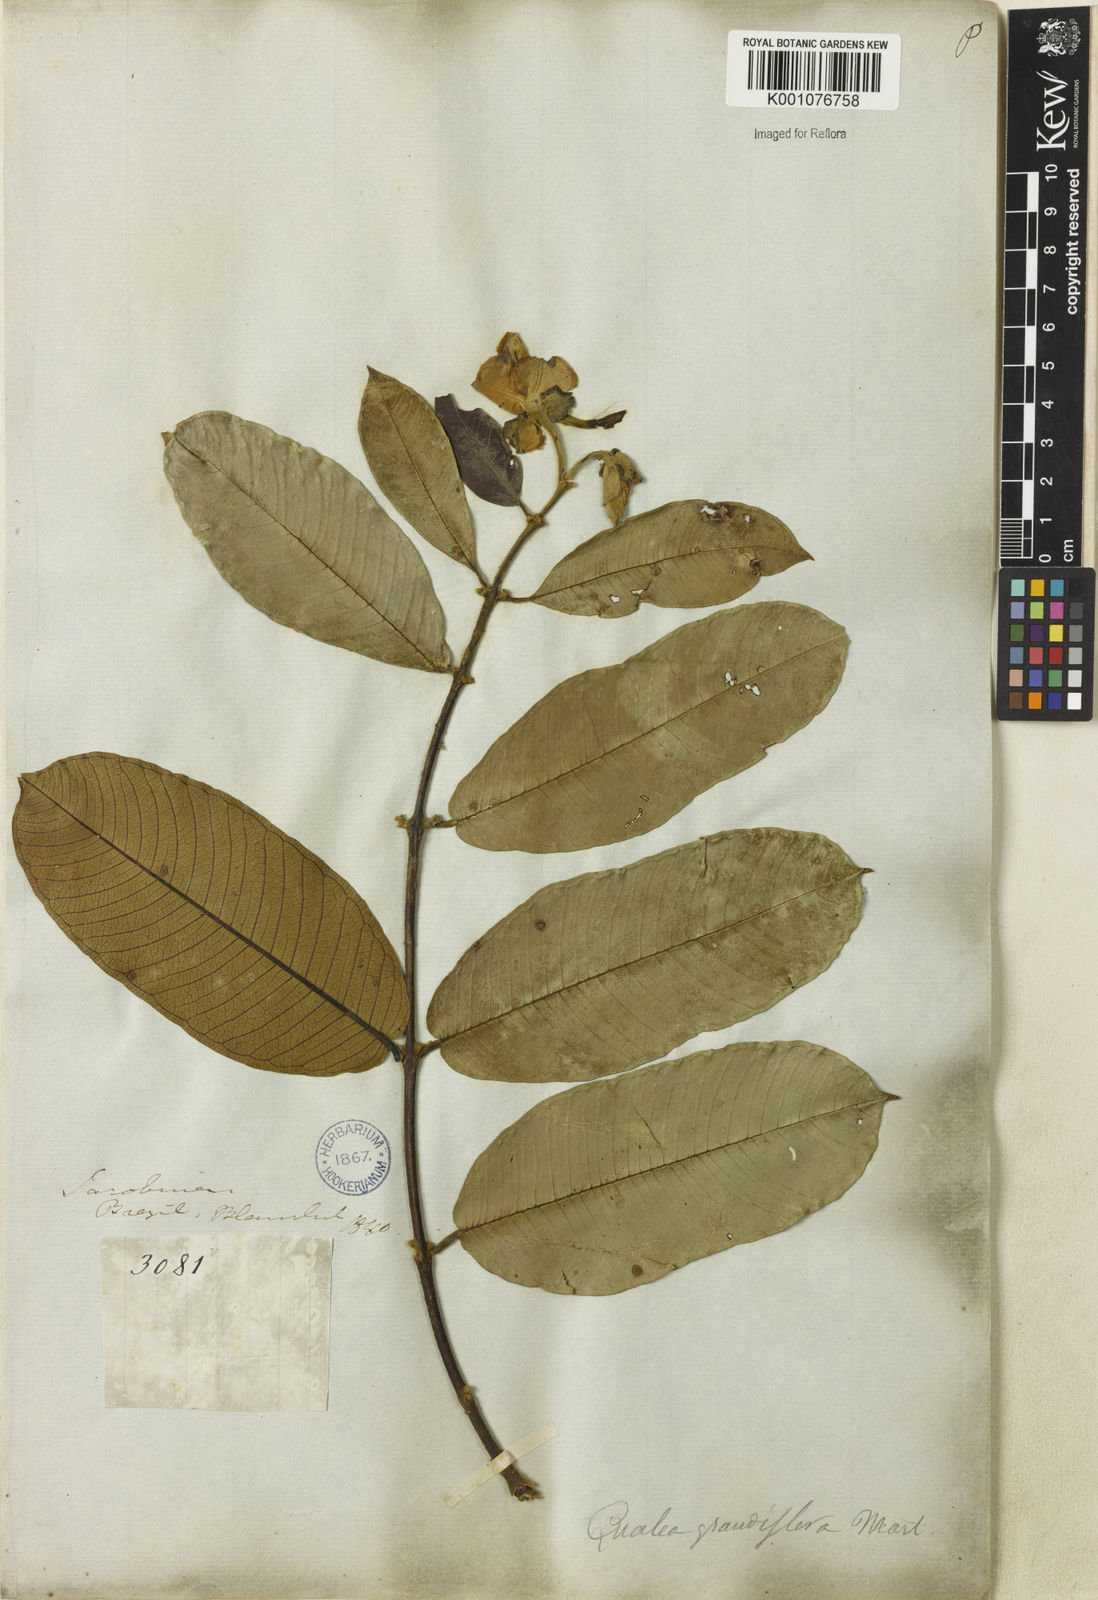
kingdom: Plantae
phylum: Tracheophyta
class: Magnoliopsida
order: Myrtales
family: Vochysiaceae
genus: Qualea
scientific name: Qualea grandiflora
